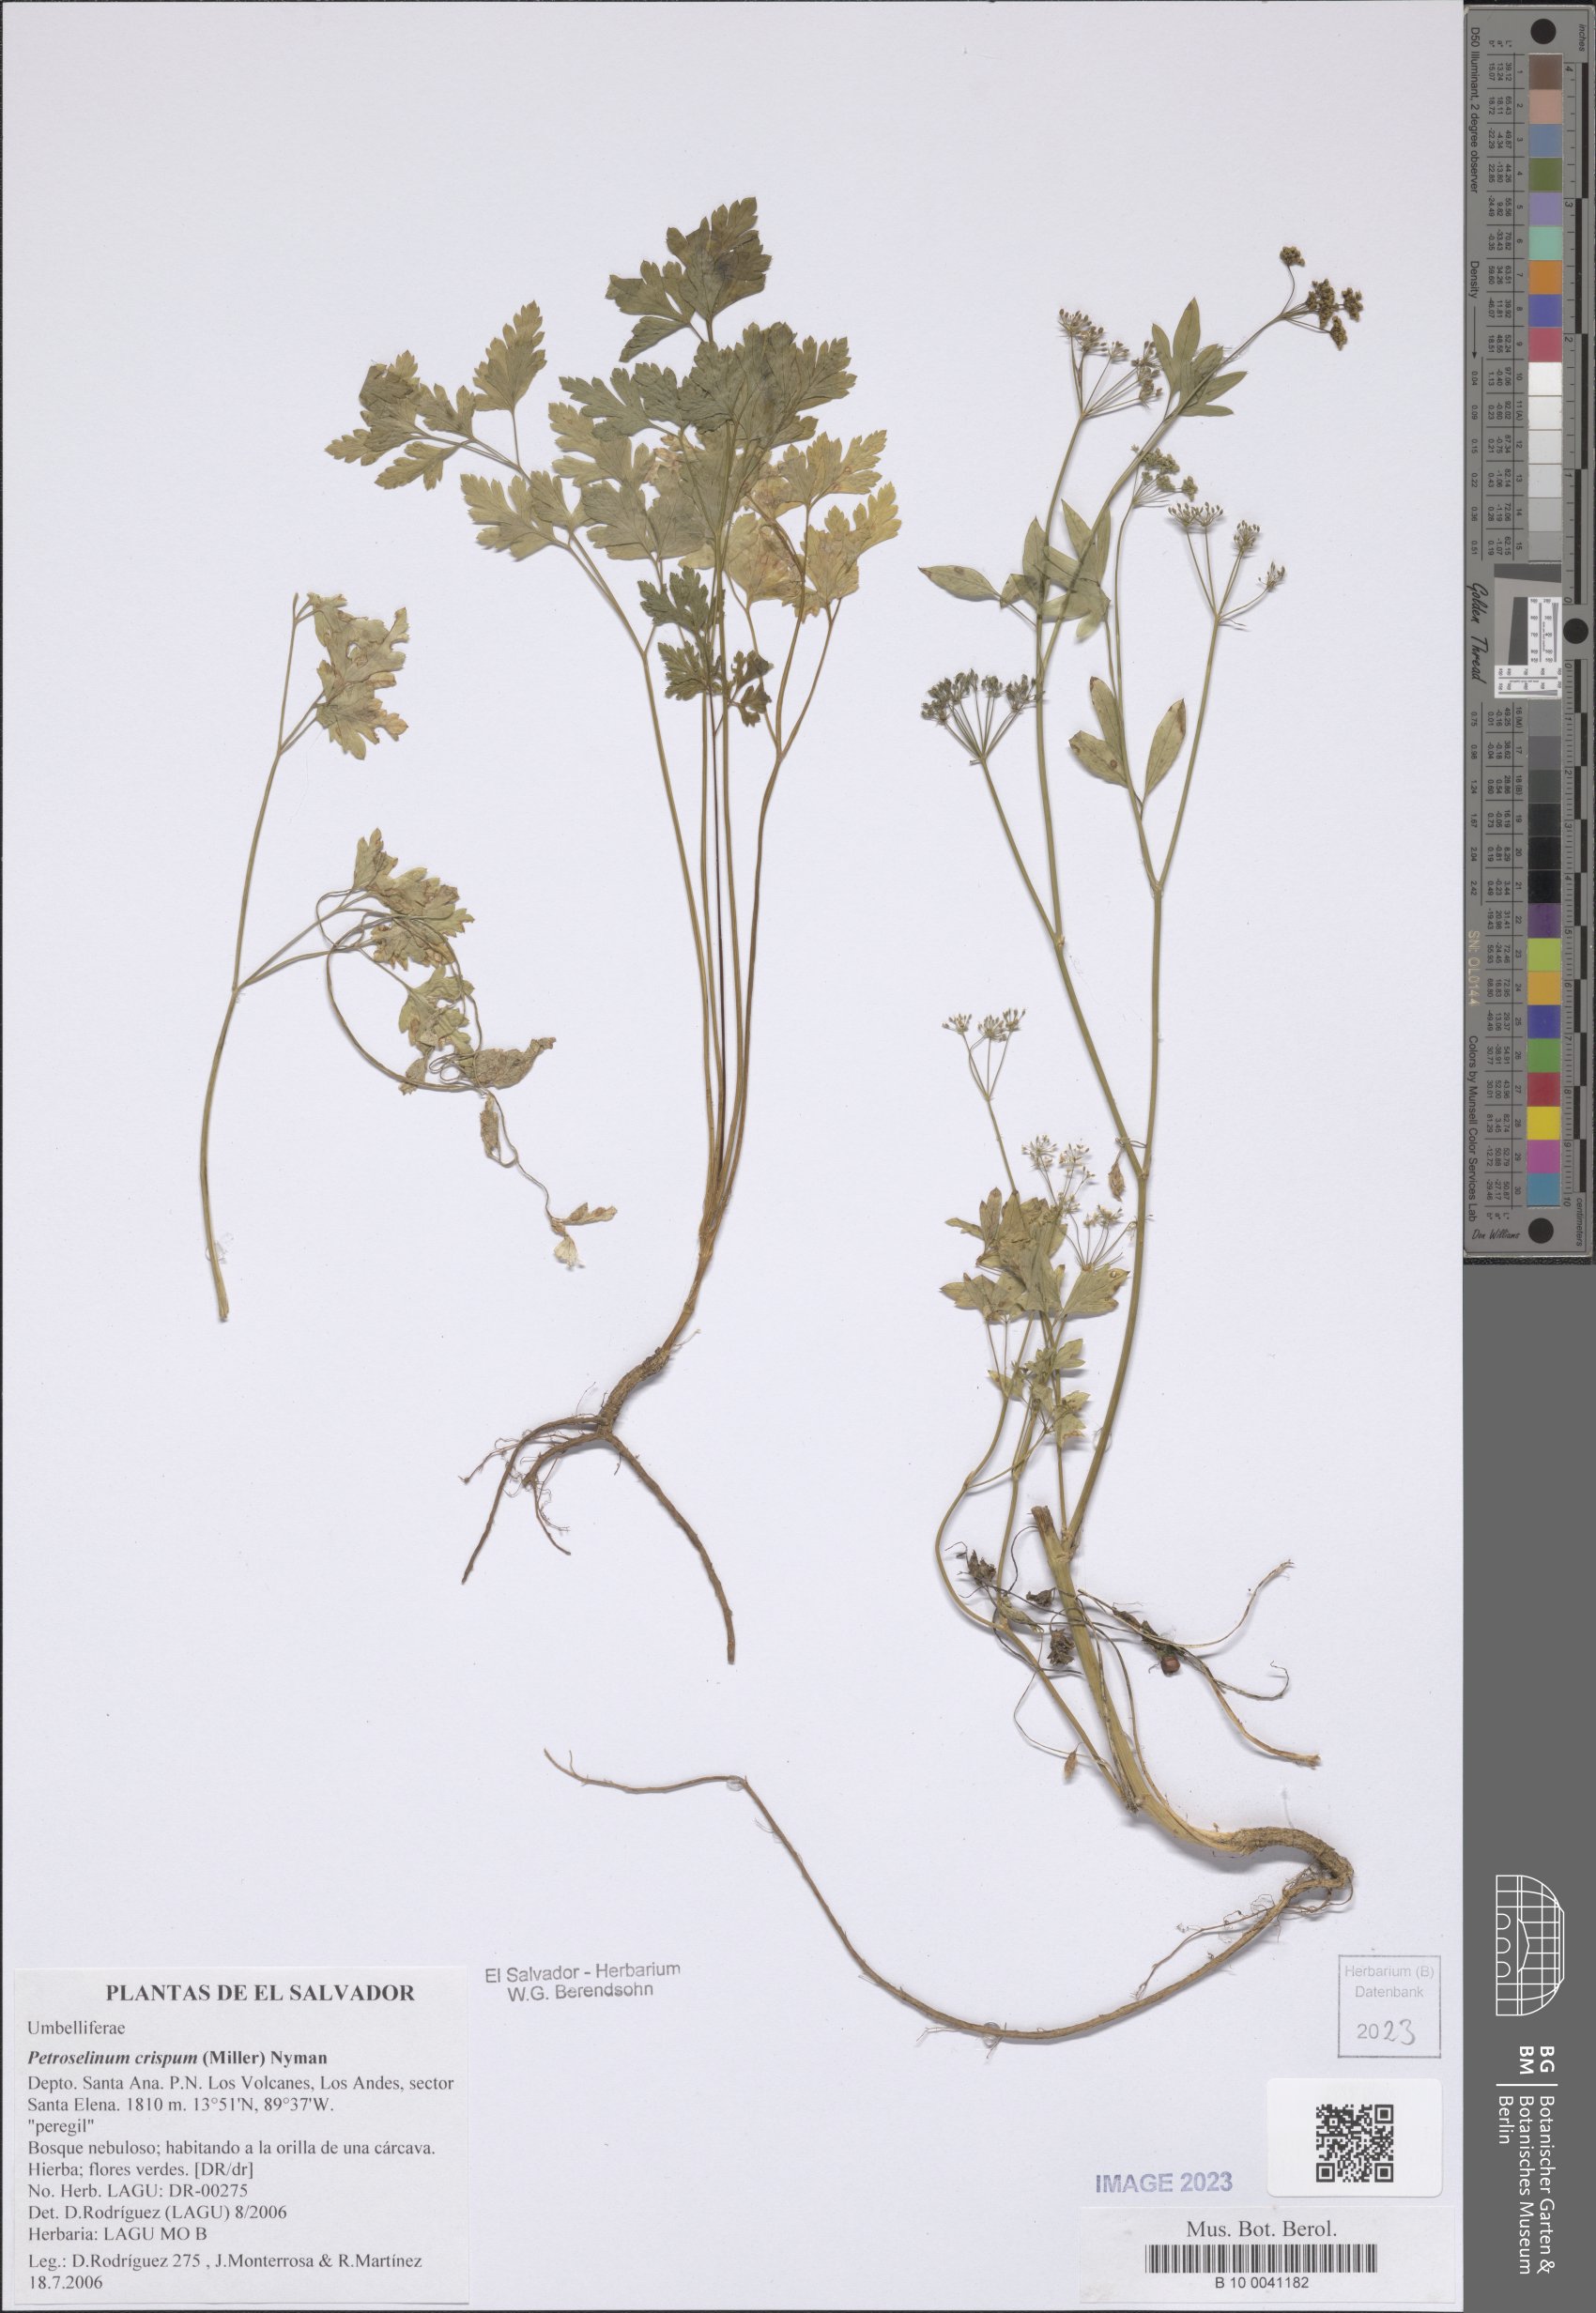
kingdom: Plantae
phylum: Tracheophyta
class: Magnoliopsida
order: Apiales
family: Apiaceae
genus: Petroselinum
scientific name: Petroselinum crispum
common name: Parsley
